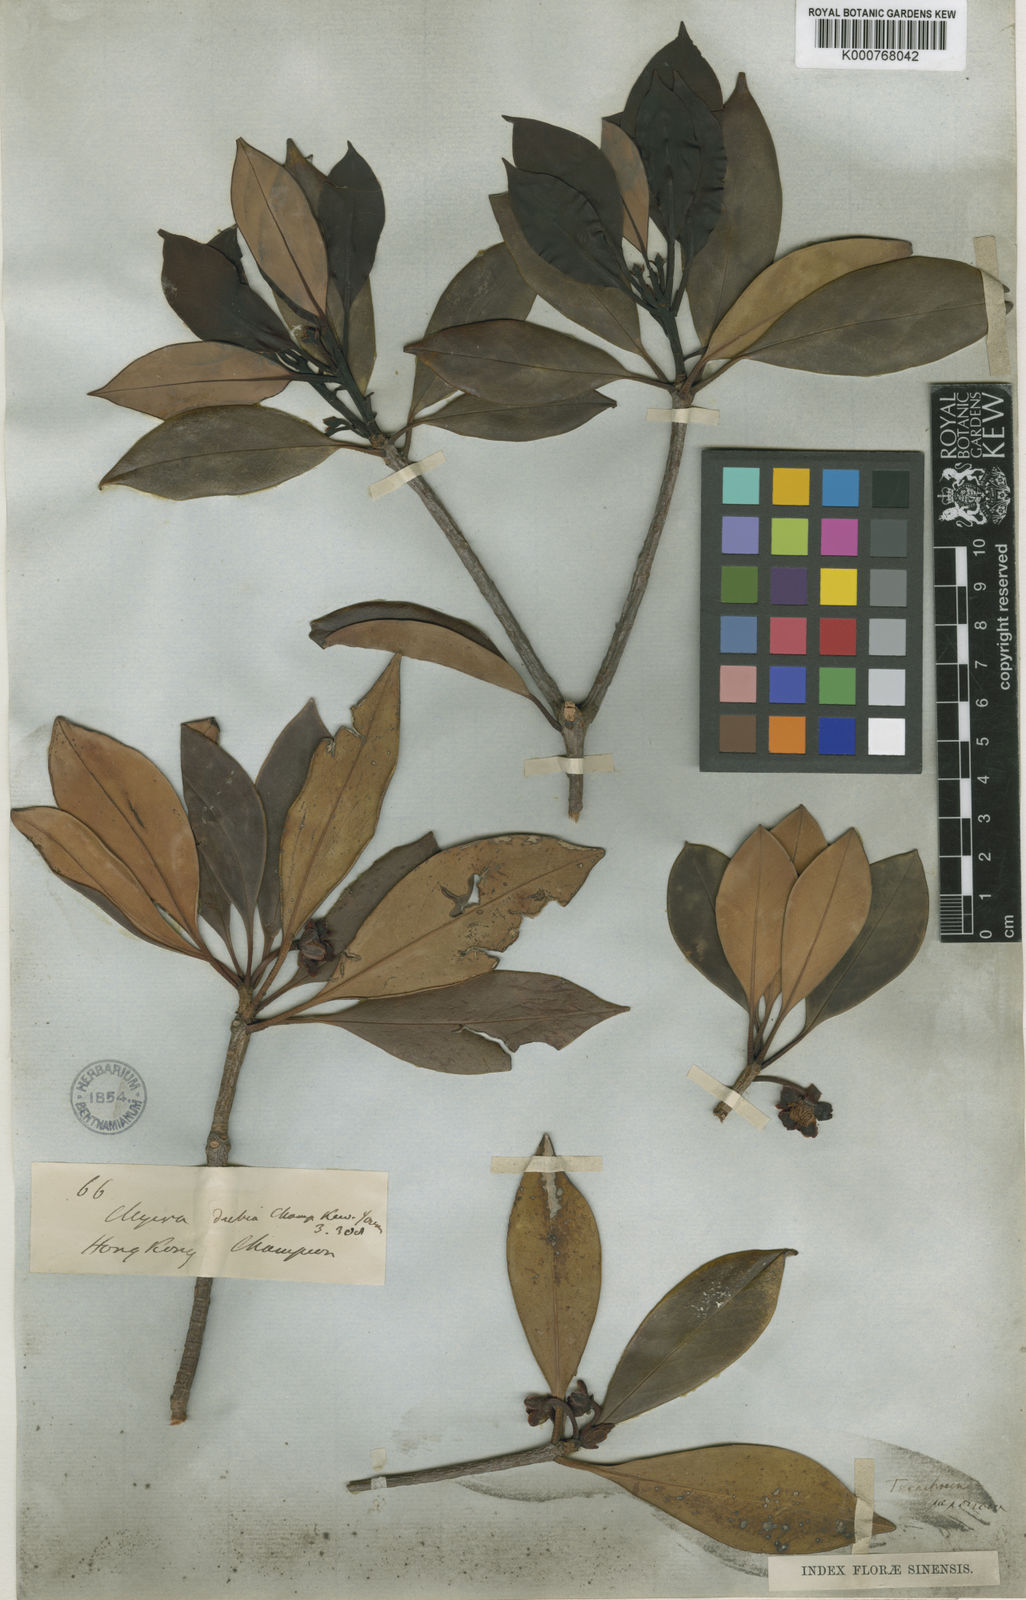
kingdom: Plantae
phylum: Tracheophyta
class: Magnoliopsida
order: Ericales
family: Pentaphylacaceae
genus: Ternstroemia
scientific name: Ternstroemia
